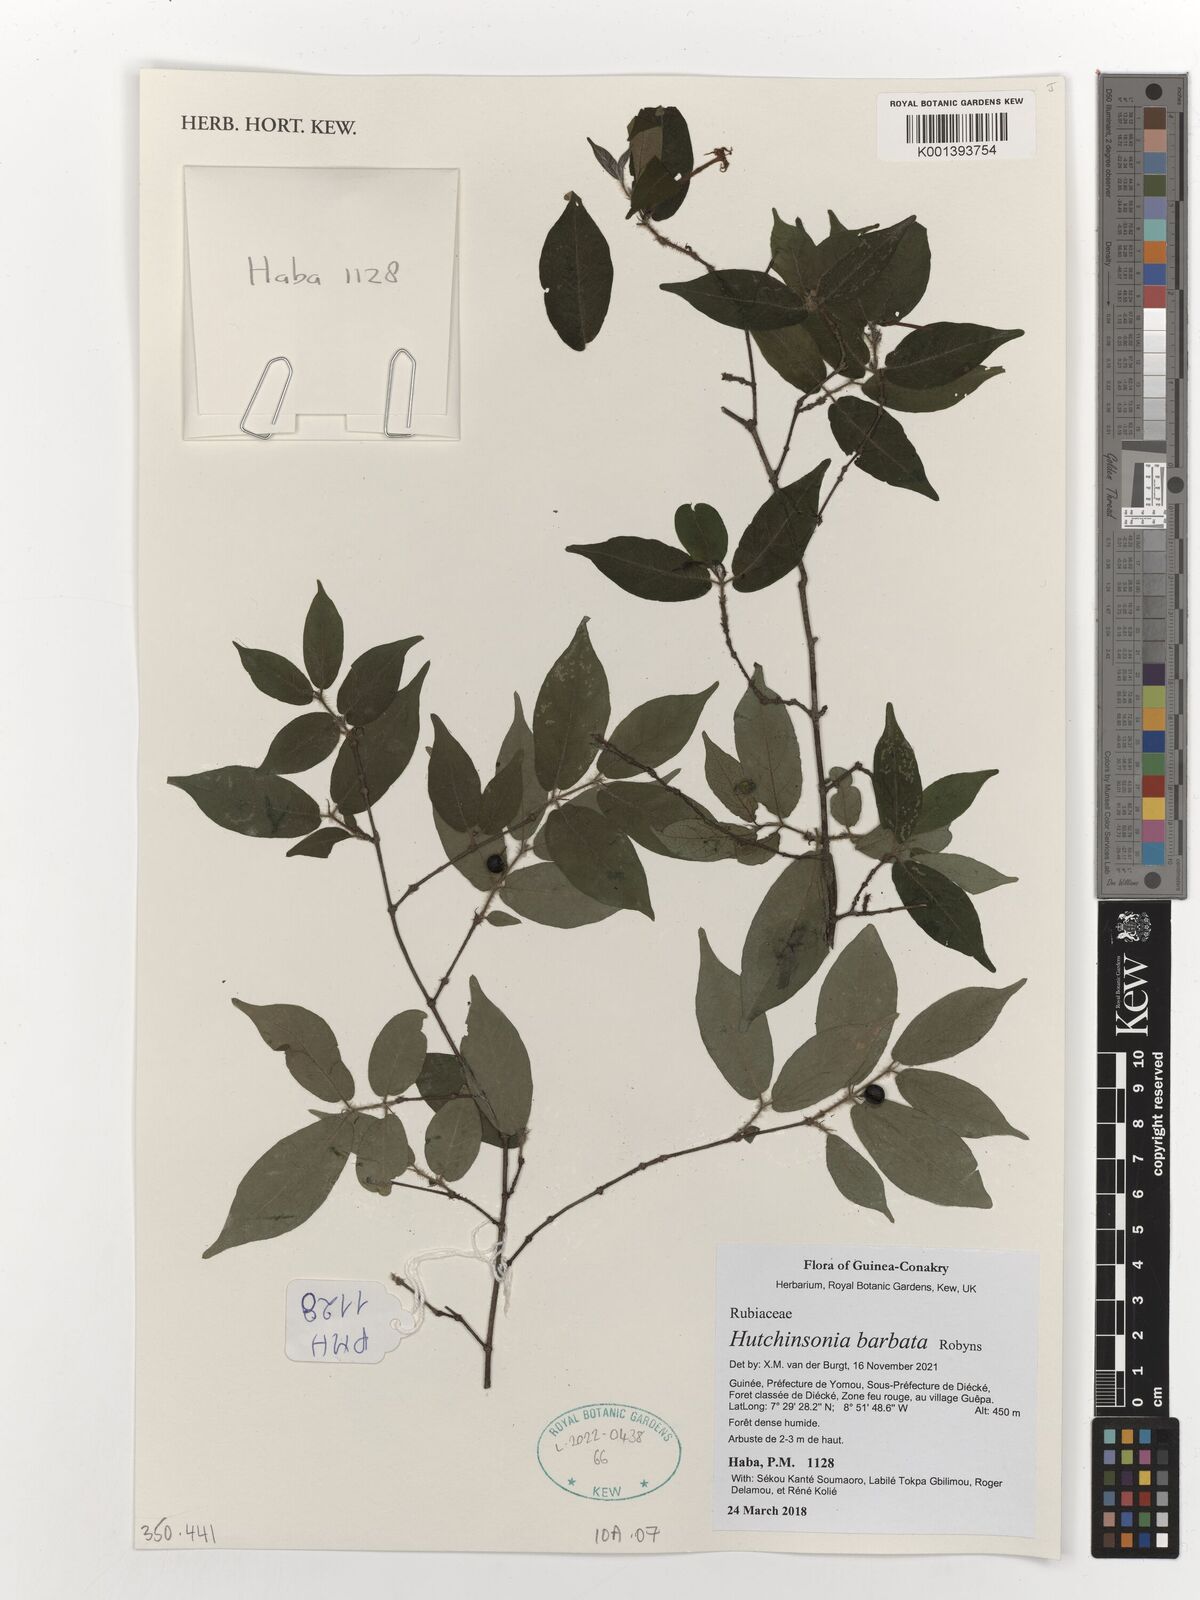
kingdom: Plantae
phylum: Tracheophyta
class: Magnoliopsida
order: Gentianales
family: Rubiaceae
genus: Hutchinsonia
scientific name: Hutchinsonia barbata
